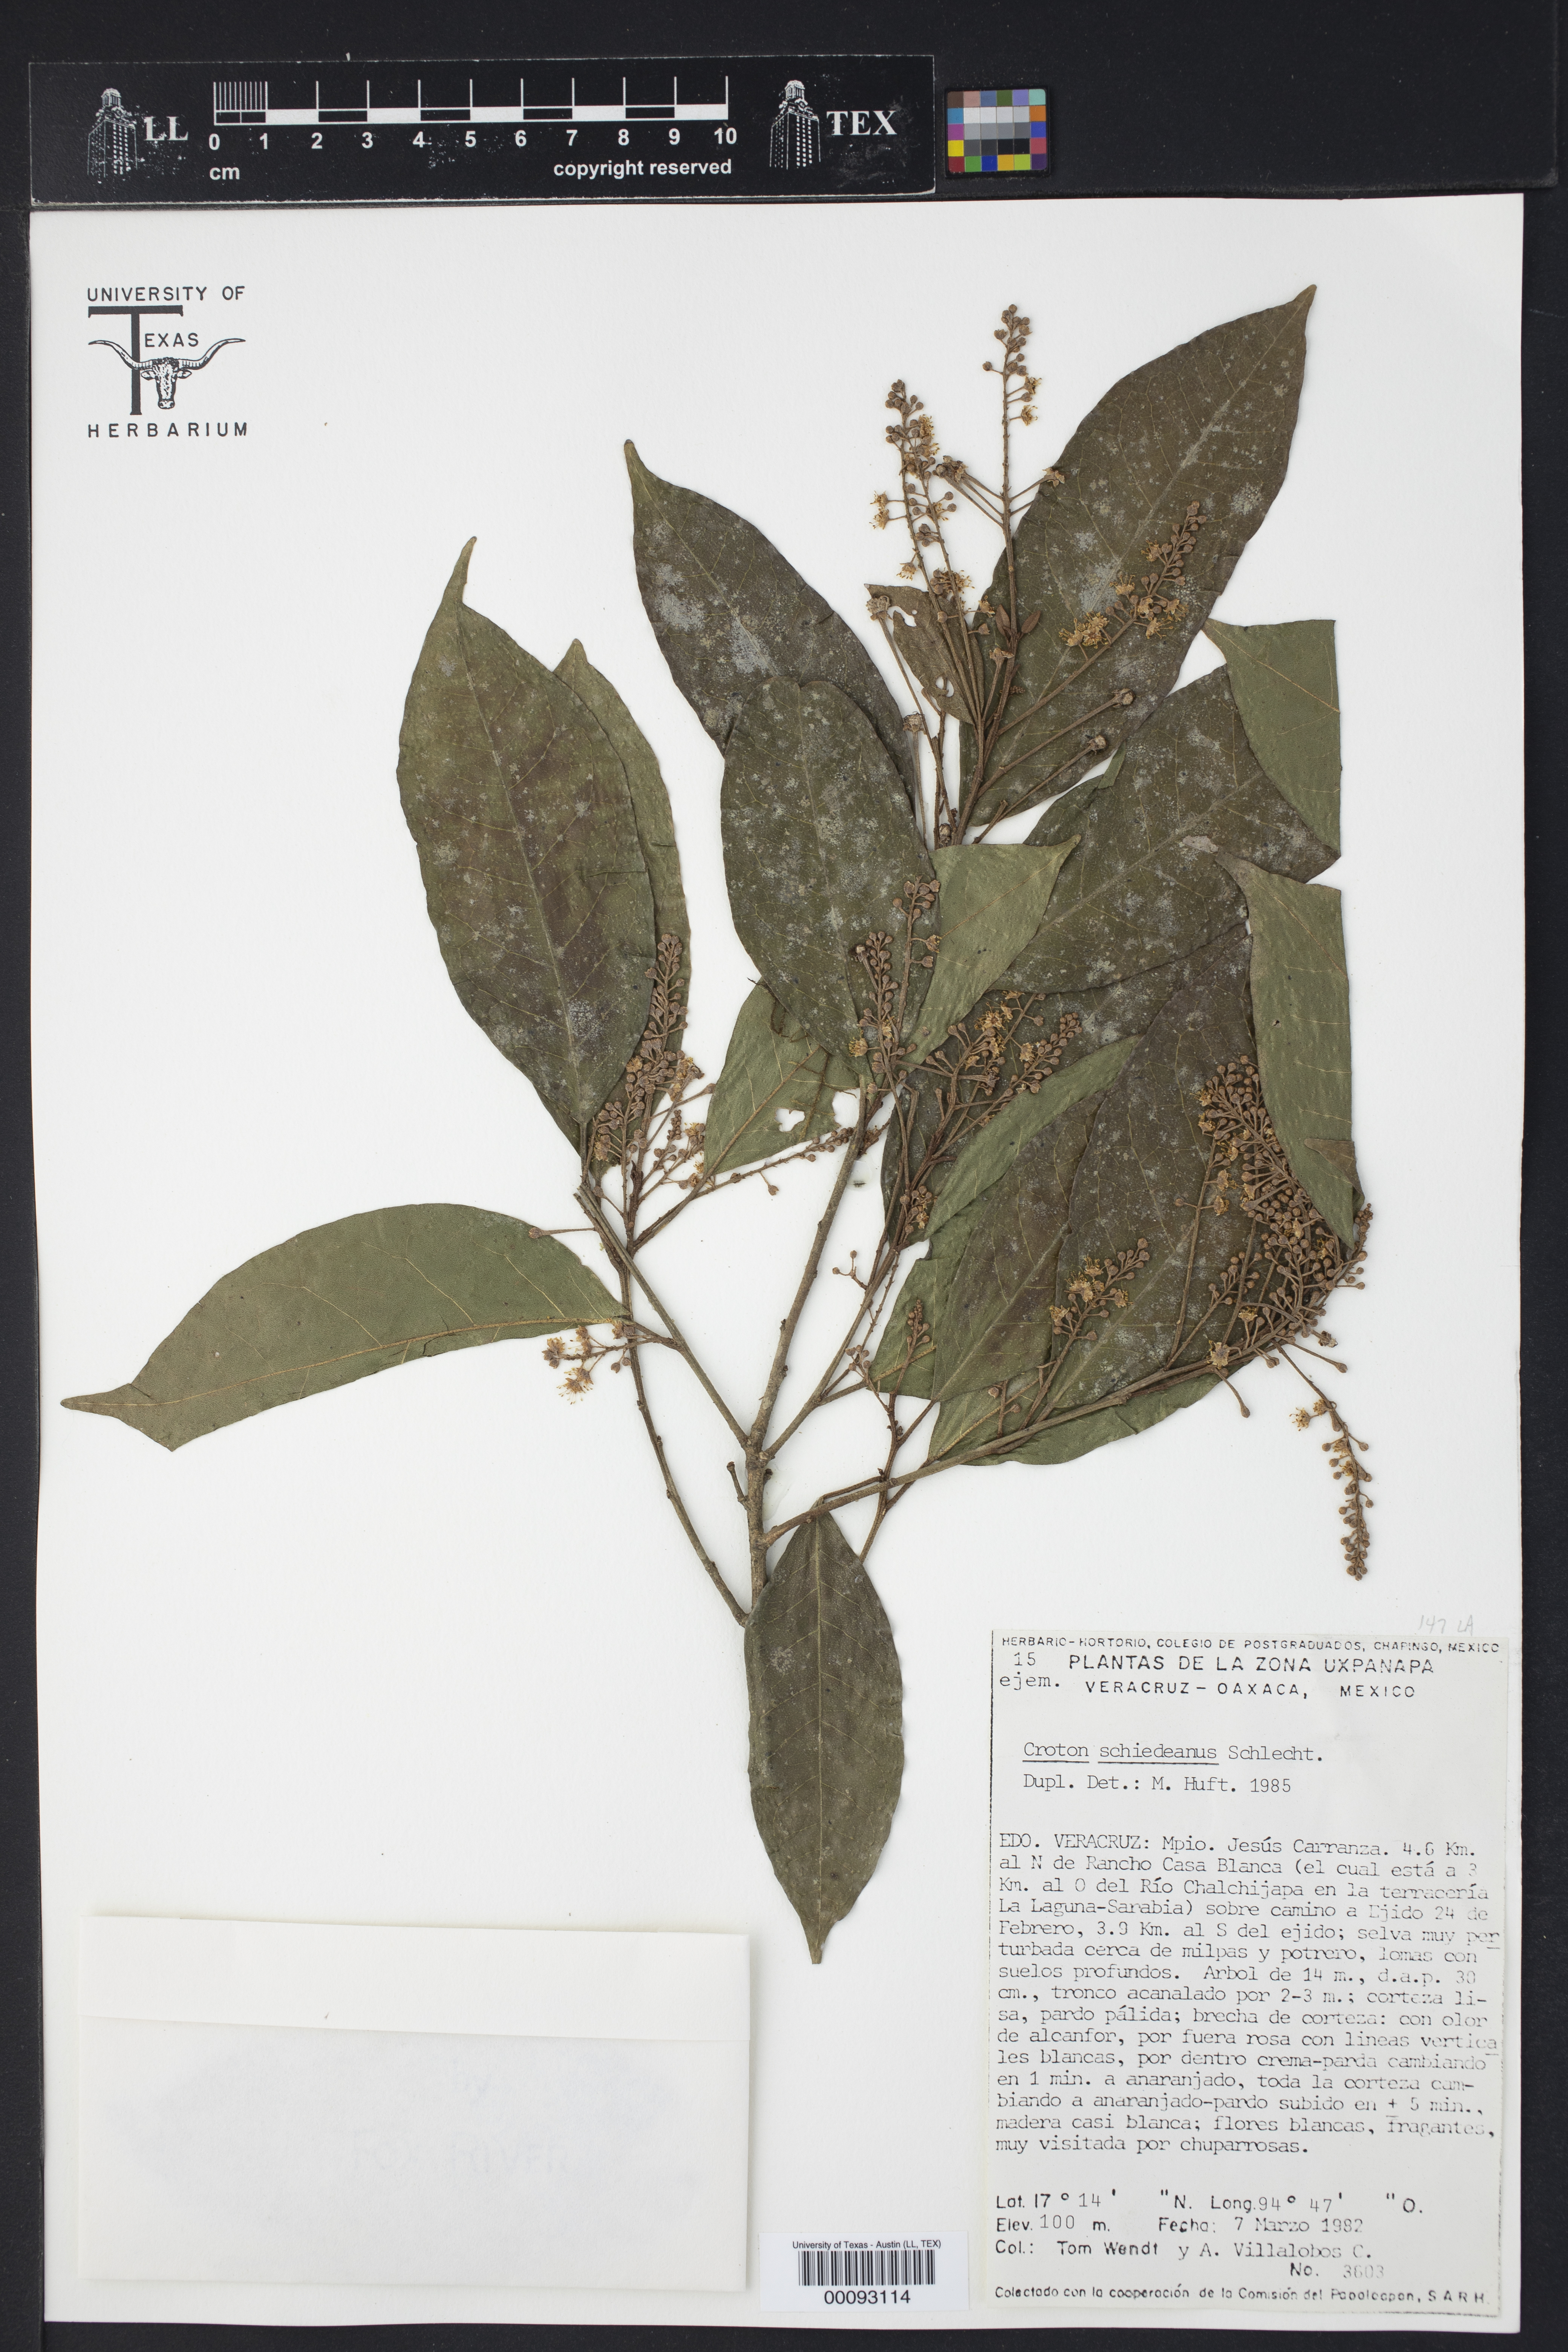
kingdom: Plantae
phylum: Tracheophyta
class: Magnoliopsida
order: Malpighiales
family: Euphorbiaceae
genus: Croton
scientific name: Croton schiedeanus
